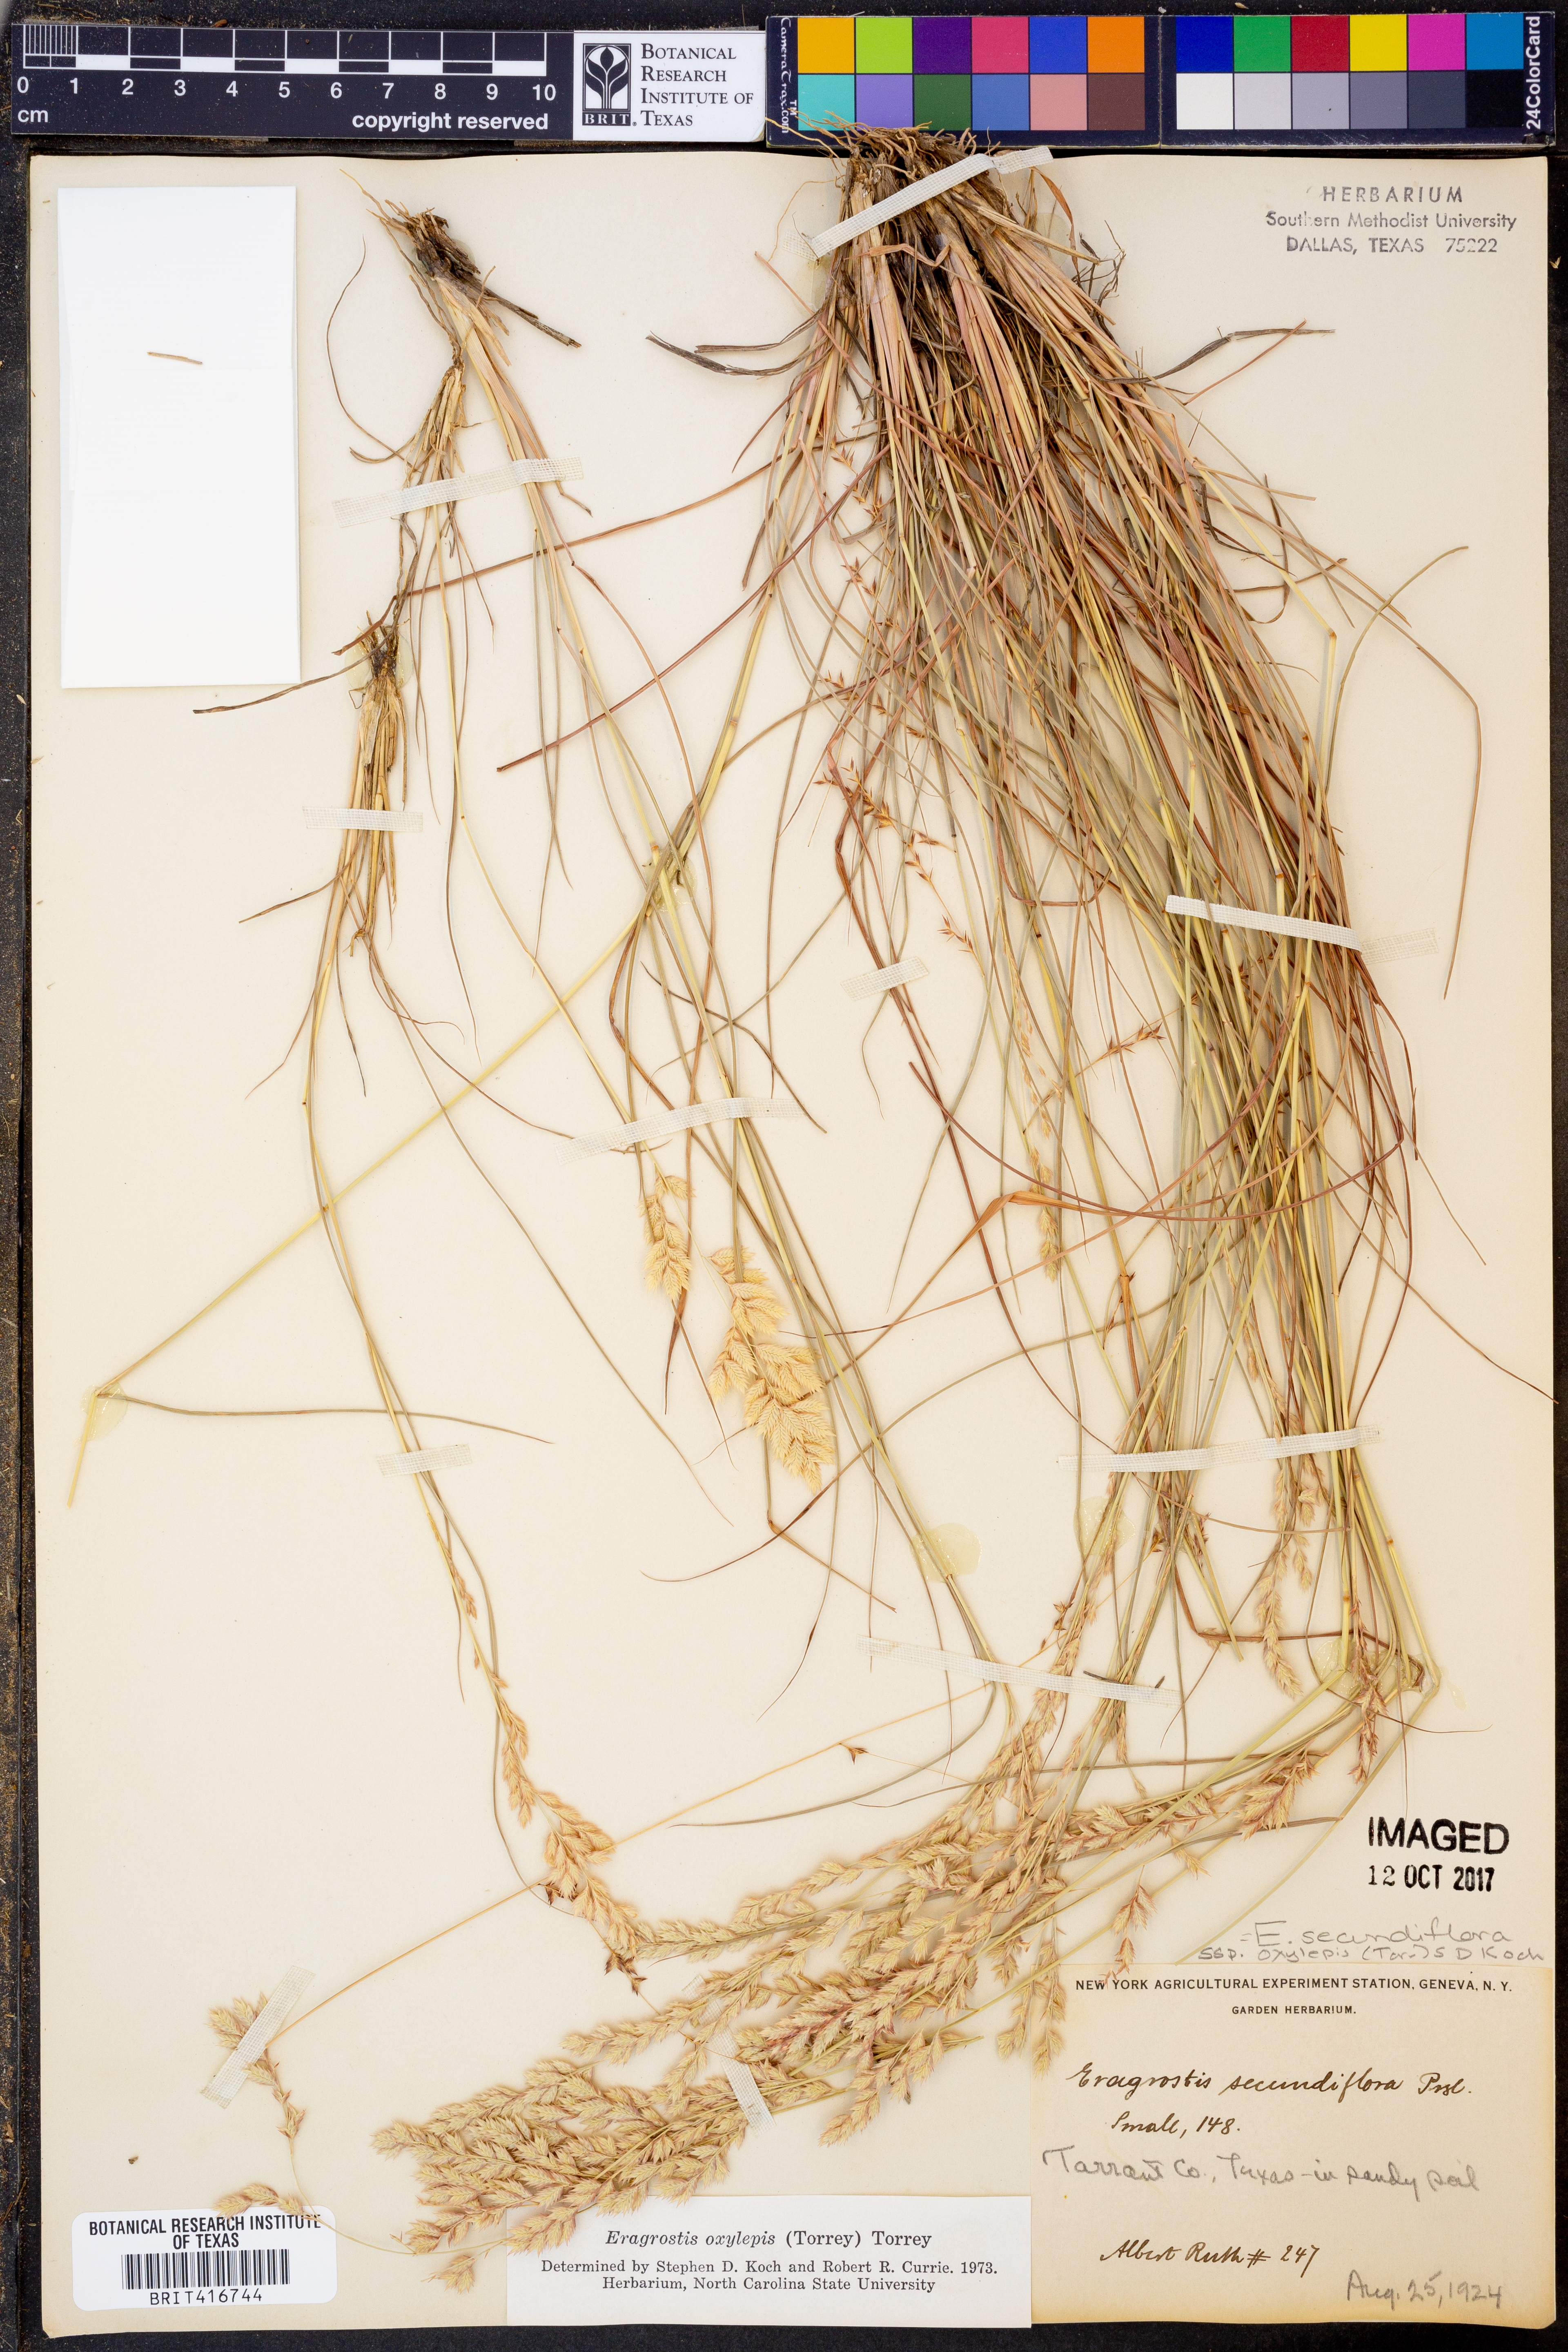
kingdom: Plantae
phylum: Tracheophyta
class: Liliopsida
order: Poales
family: Poaceae
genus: Eragrostis
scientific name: Eragrostis secundiflora
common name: Red love grass
